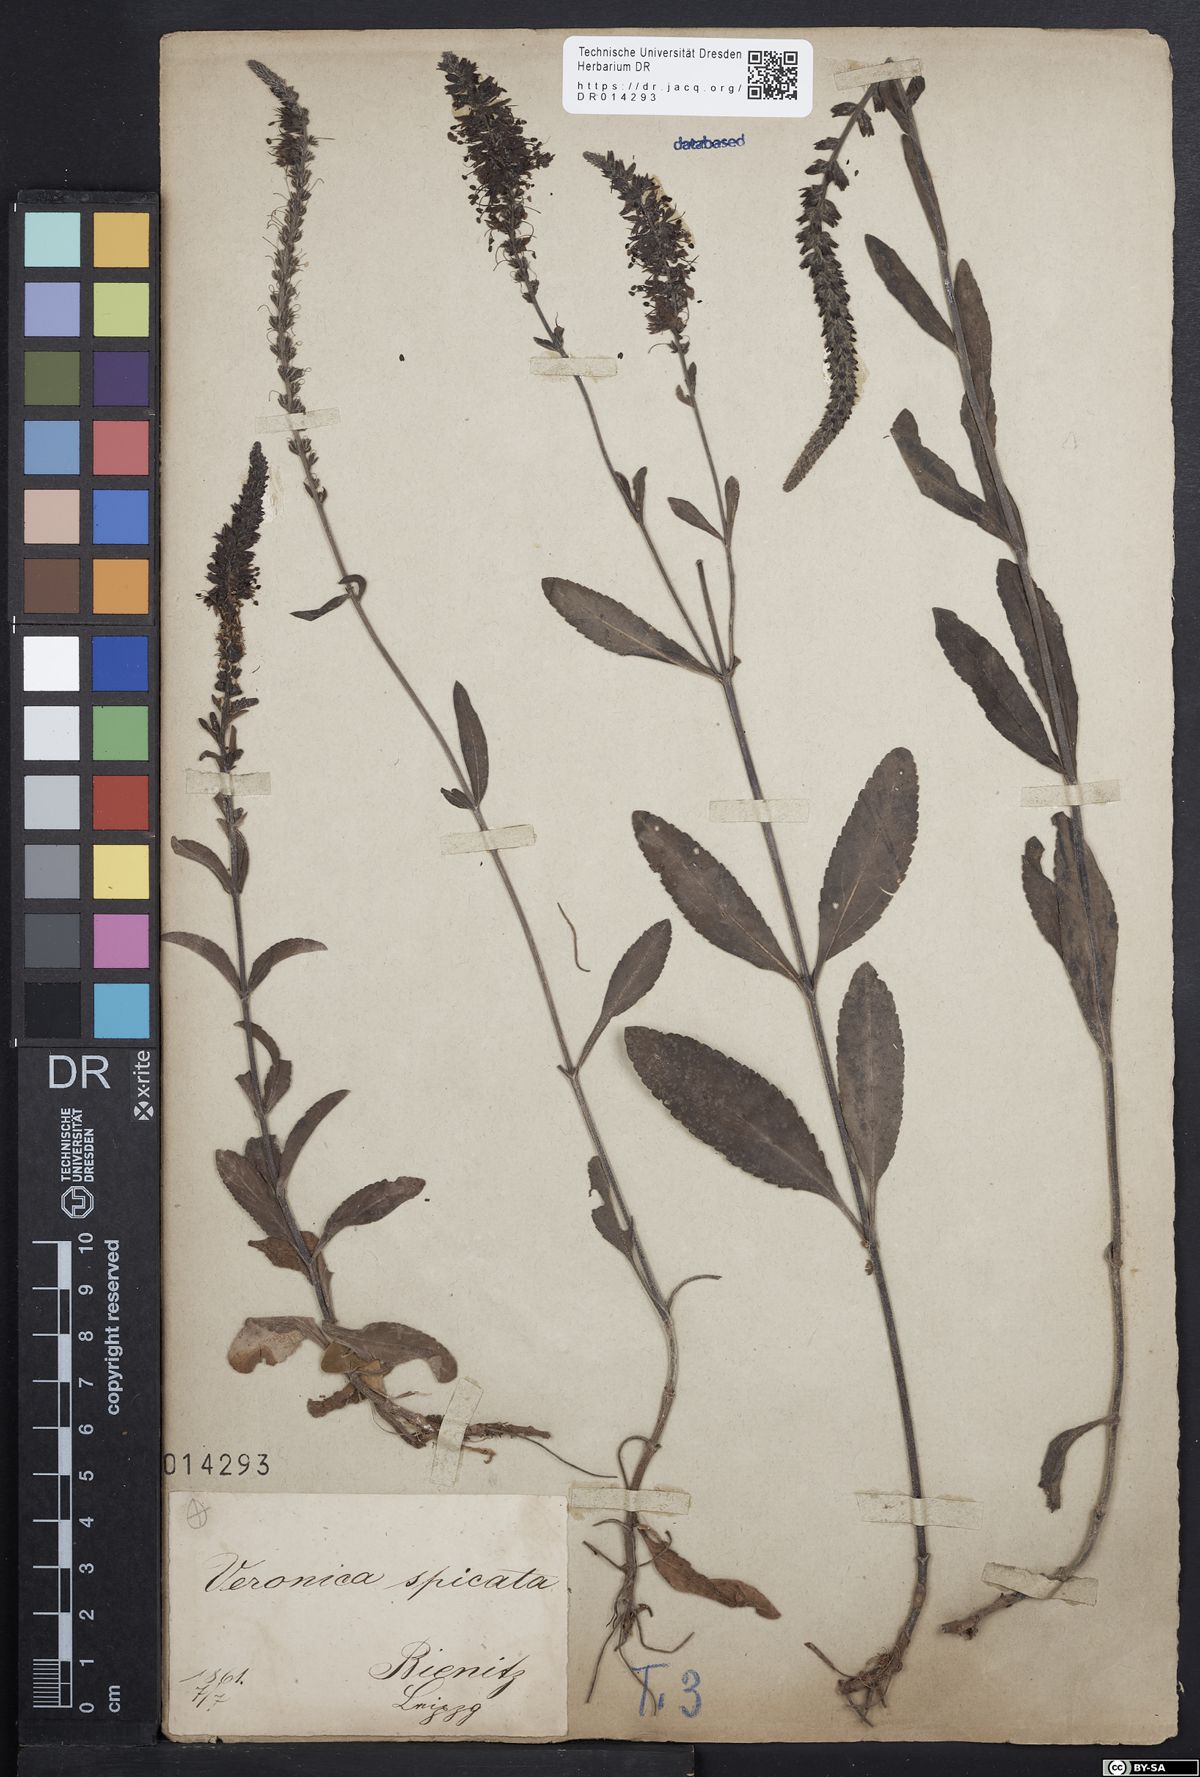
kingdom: Plantae
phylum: Tracheophyta
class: Magnoliopsida
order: Lamiales
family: Plantaginaceae
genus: Veronica
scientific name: Veronica spicata
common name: Spiked speedwell
